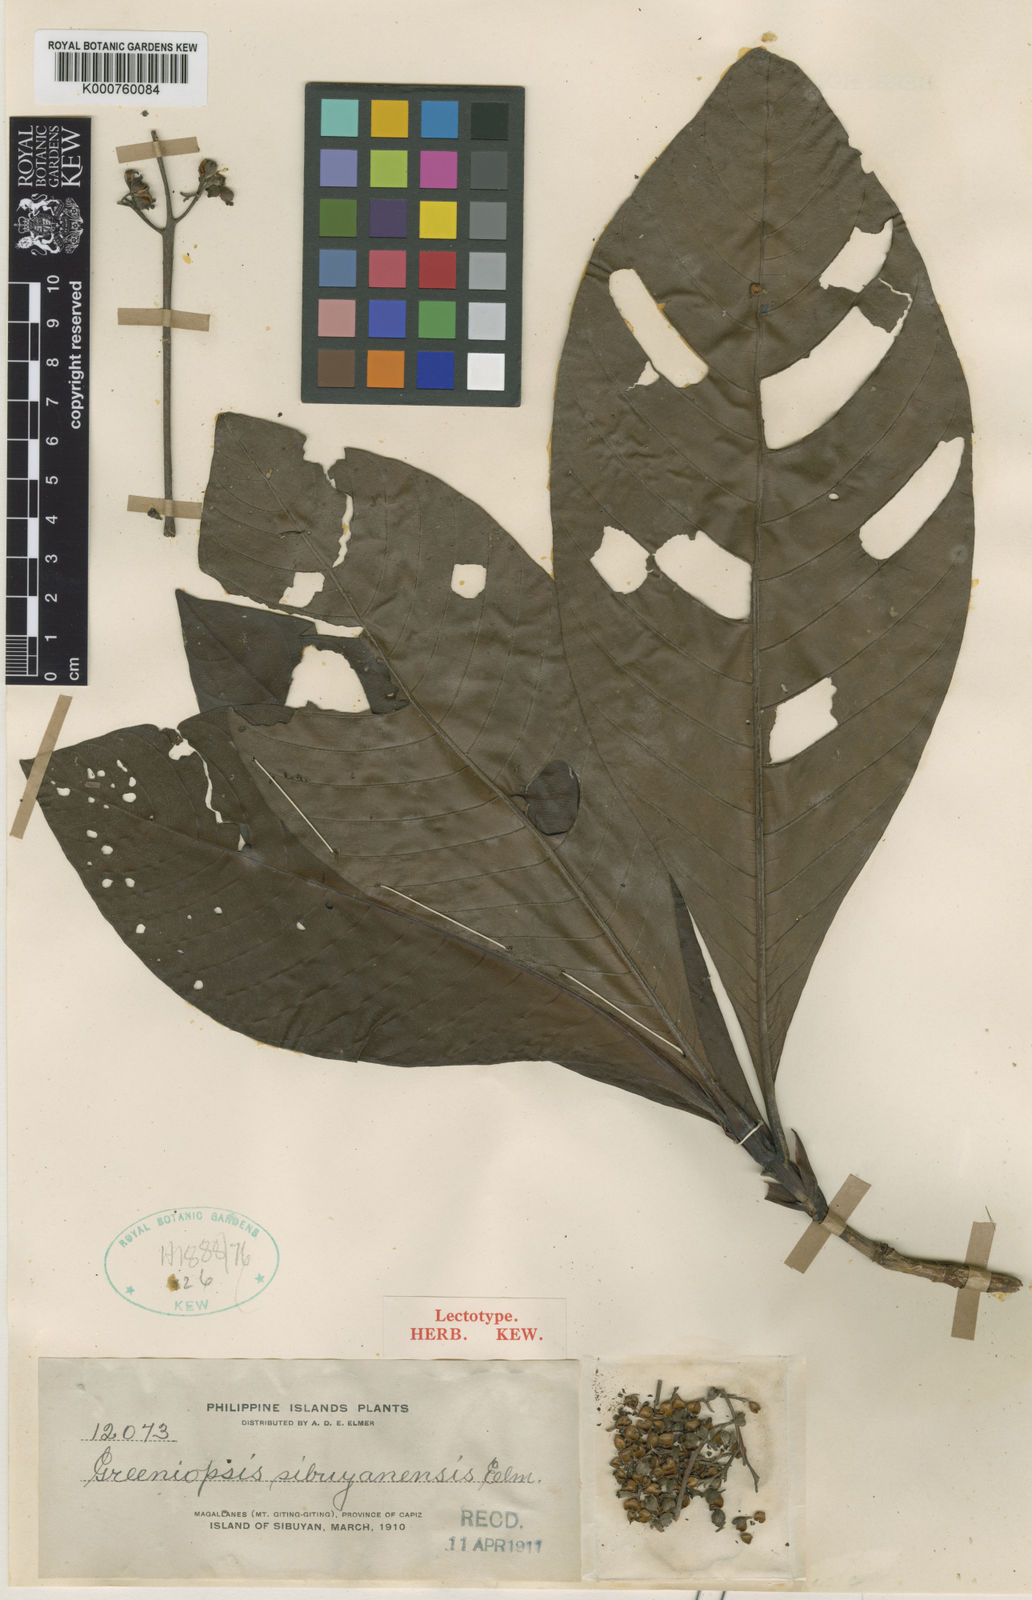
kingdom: Plantae
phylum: Tracheophyta
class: Magnoliopsida
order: Gentianales
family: Rubiaceae
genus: Greeniopsis
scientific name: Greeniopsis sibuyanensis
